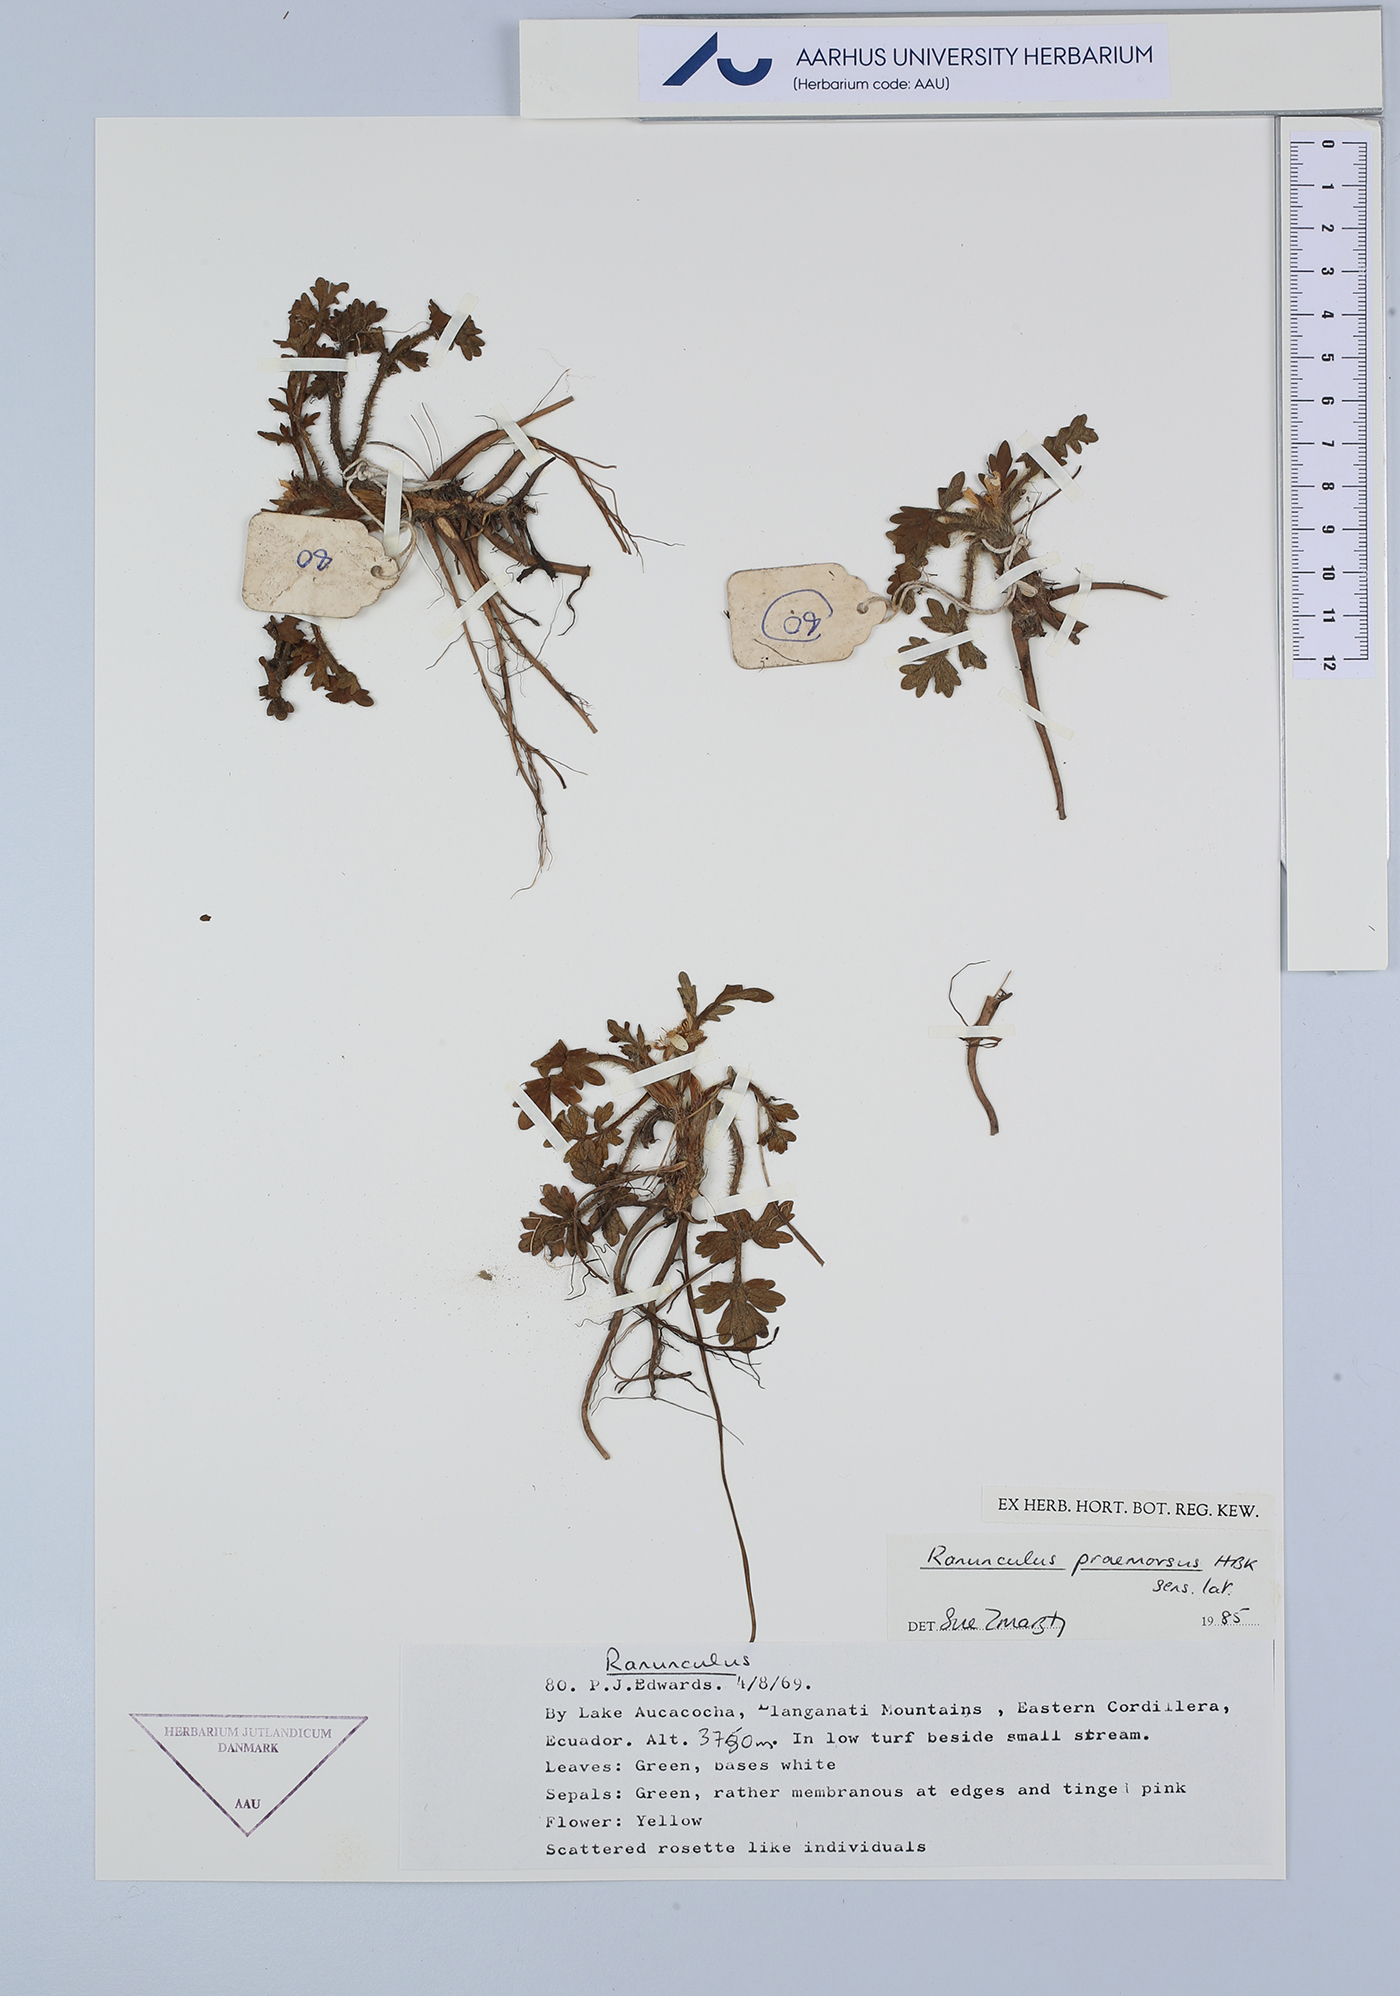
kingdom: Plantae
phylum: Tracheophyta
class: Magnoliopsida
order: Ranunculales
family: Ranunculaceae
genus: Ranunculus
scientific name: Ranunculus praemorsus
